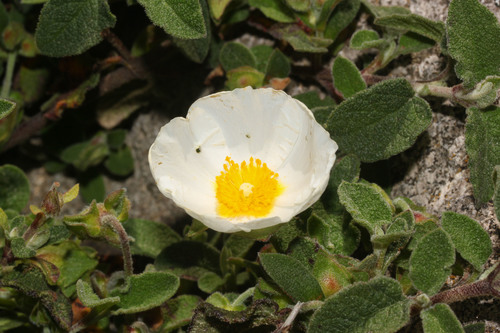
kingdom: Plantae
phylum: Tracheophyta
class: Magnoliopsida
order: Malvales
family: Cistaceae
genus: Cistus
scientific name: Cistus salviifolius
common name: Salvia cistus
